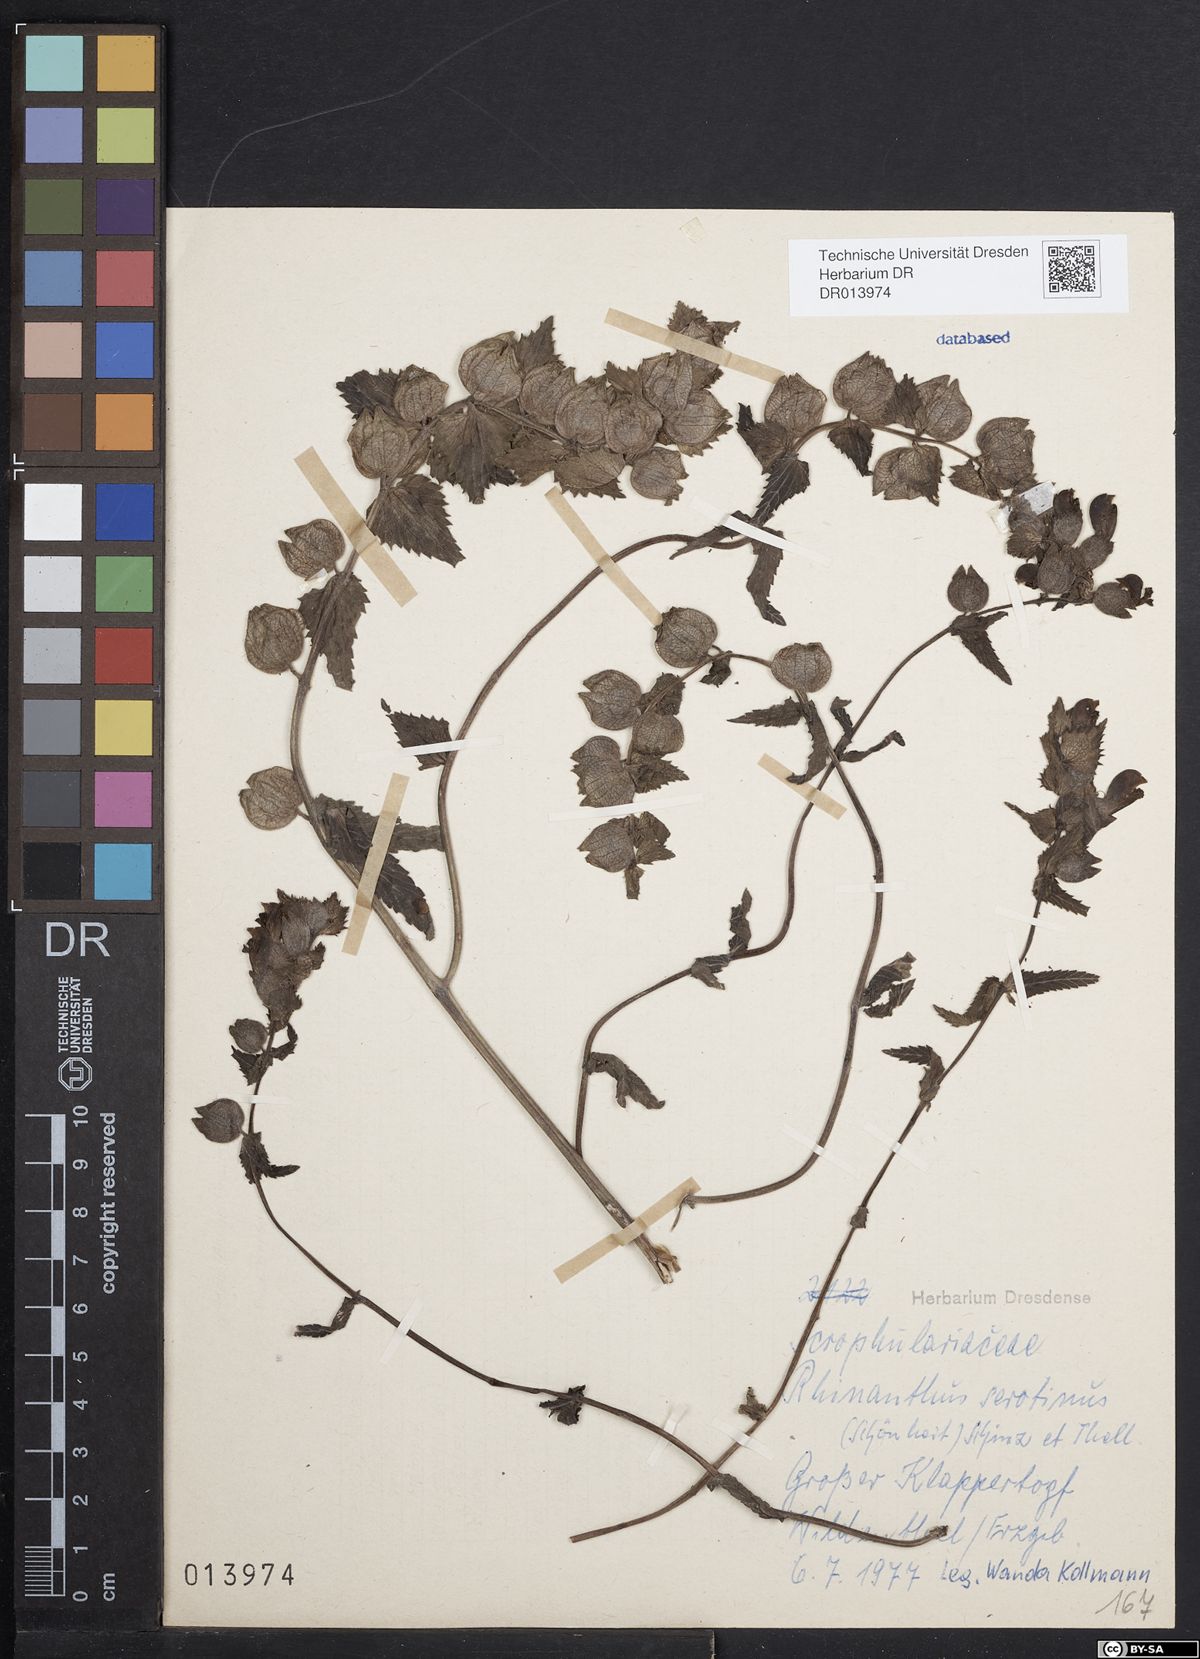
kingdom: Plantae
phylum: Tracheophyta
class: Magnoliopsida
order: Lamiales
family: Orobanchaceae
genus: Rhinanthus
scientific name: Rhinanthus serotinus
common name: Late-flowering yellow rattle
